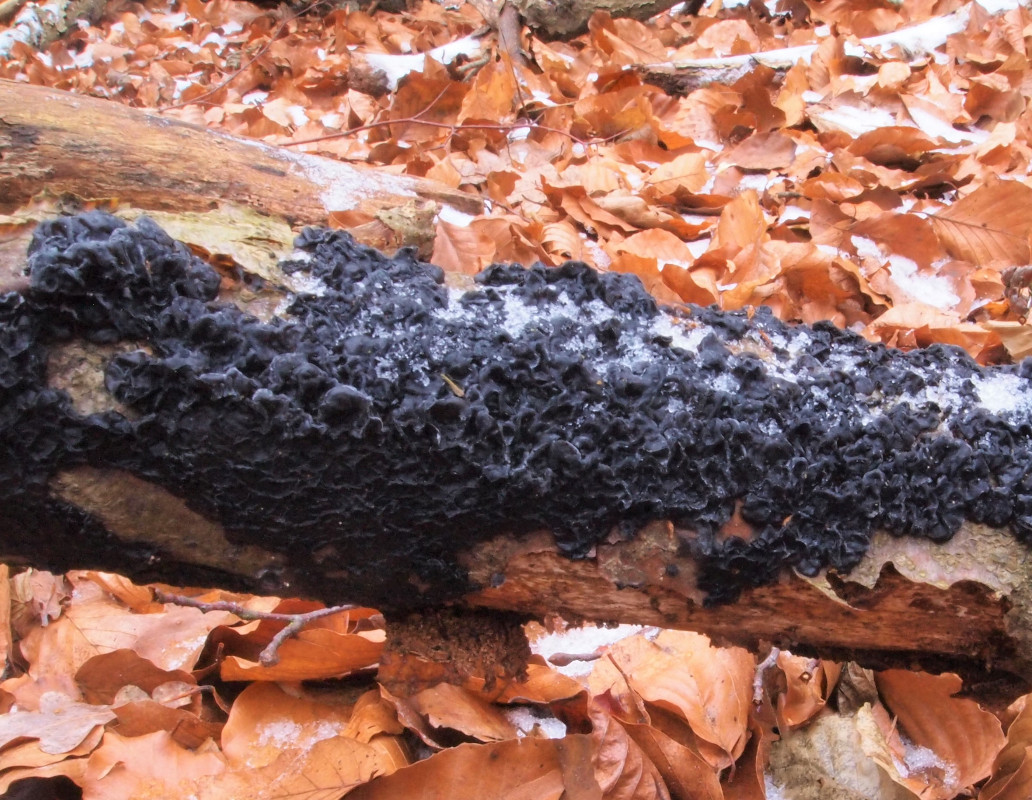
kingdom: Fungi
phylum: Basidiomycota
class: Agaricomycetes
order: Auriculariales
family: Auriculariaceae
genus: Exidia
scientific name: Exidia nigricans
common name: almindelig bævretop
